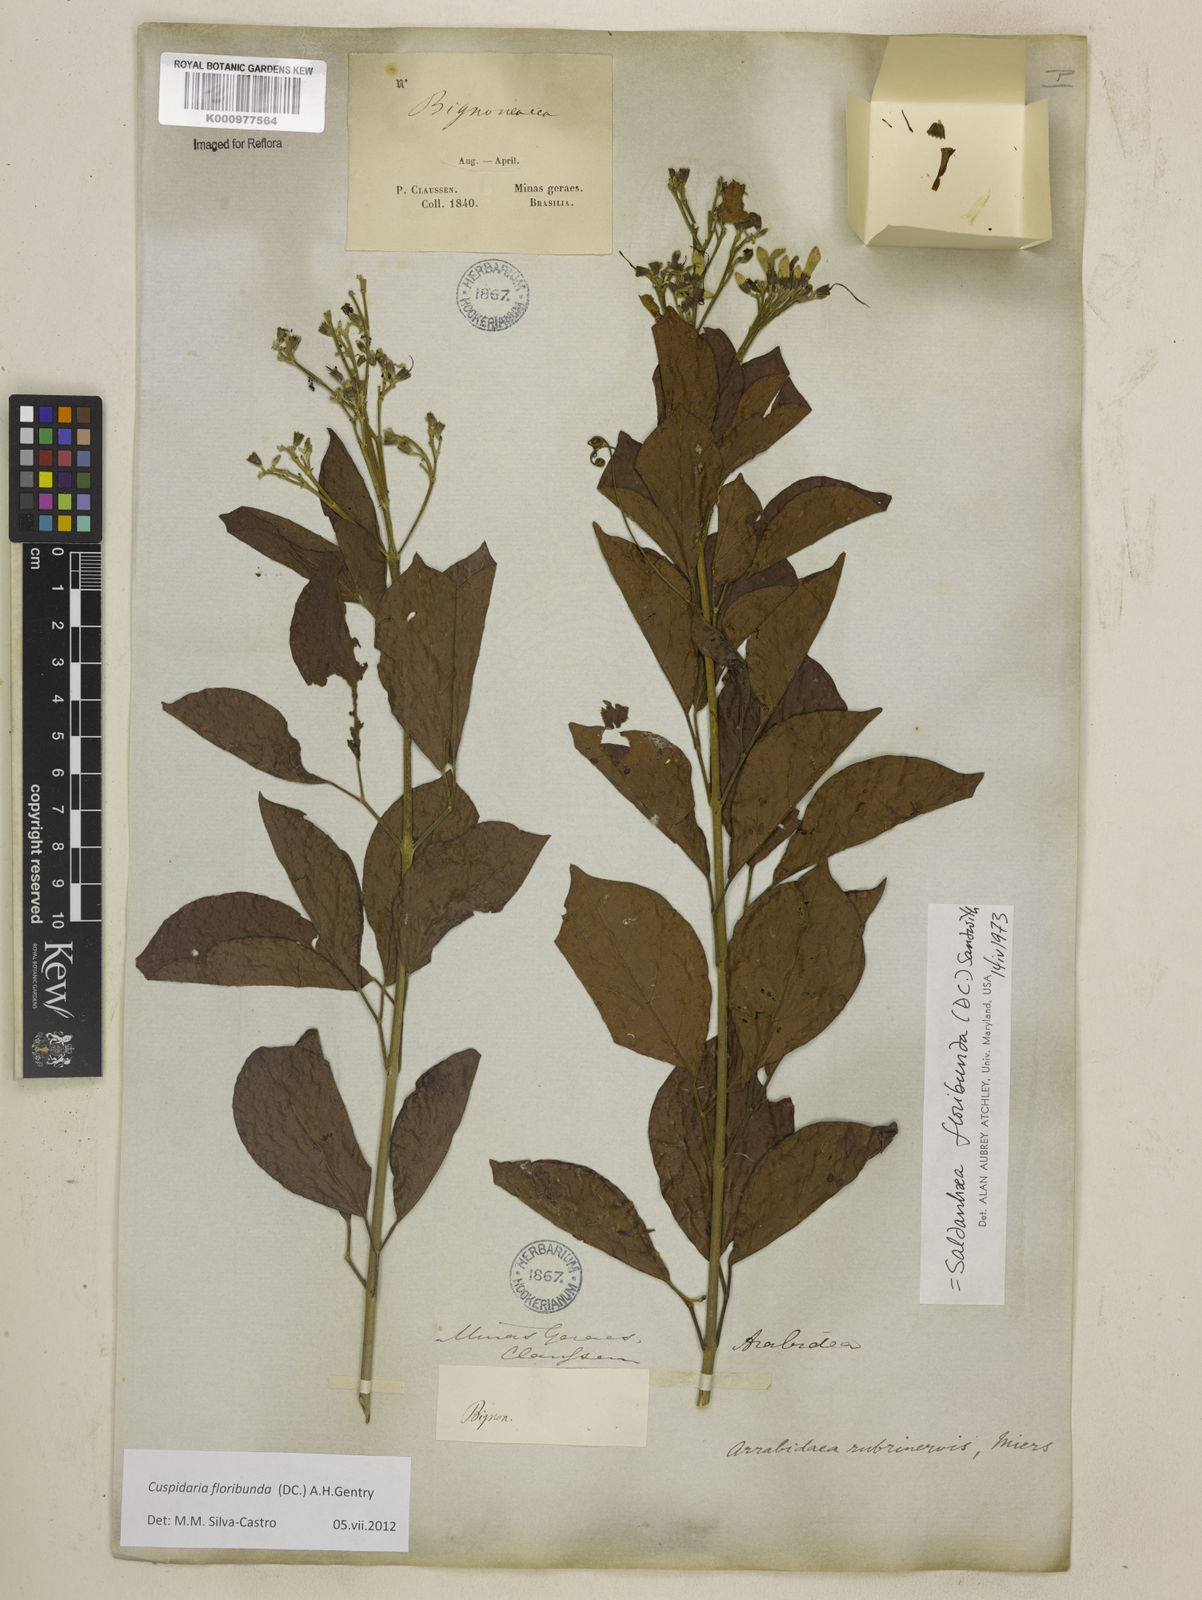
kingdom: Plantae
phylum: Tracheophyta
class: Magnoliopsida
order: Lamiales
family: Bignoniaceae
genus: Cuspidaria
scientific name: Cuspidaria floribunda
